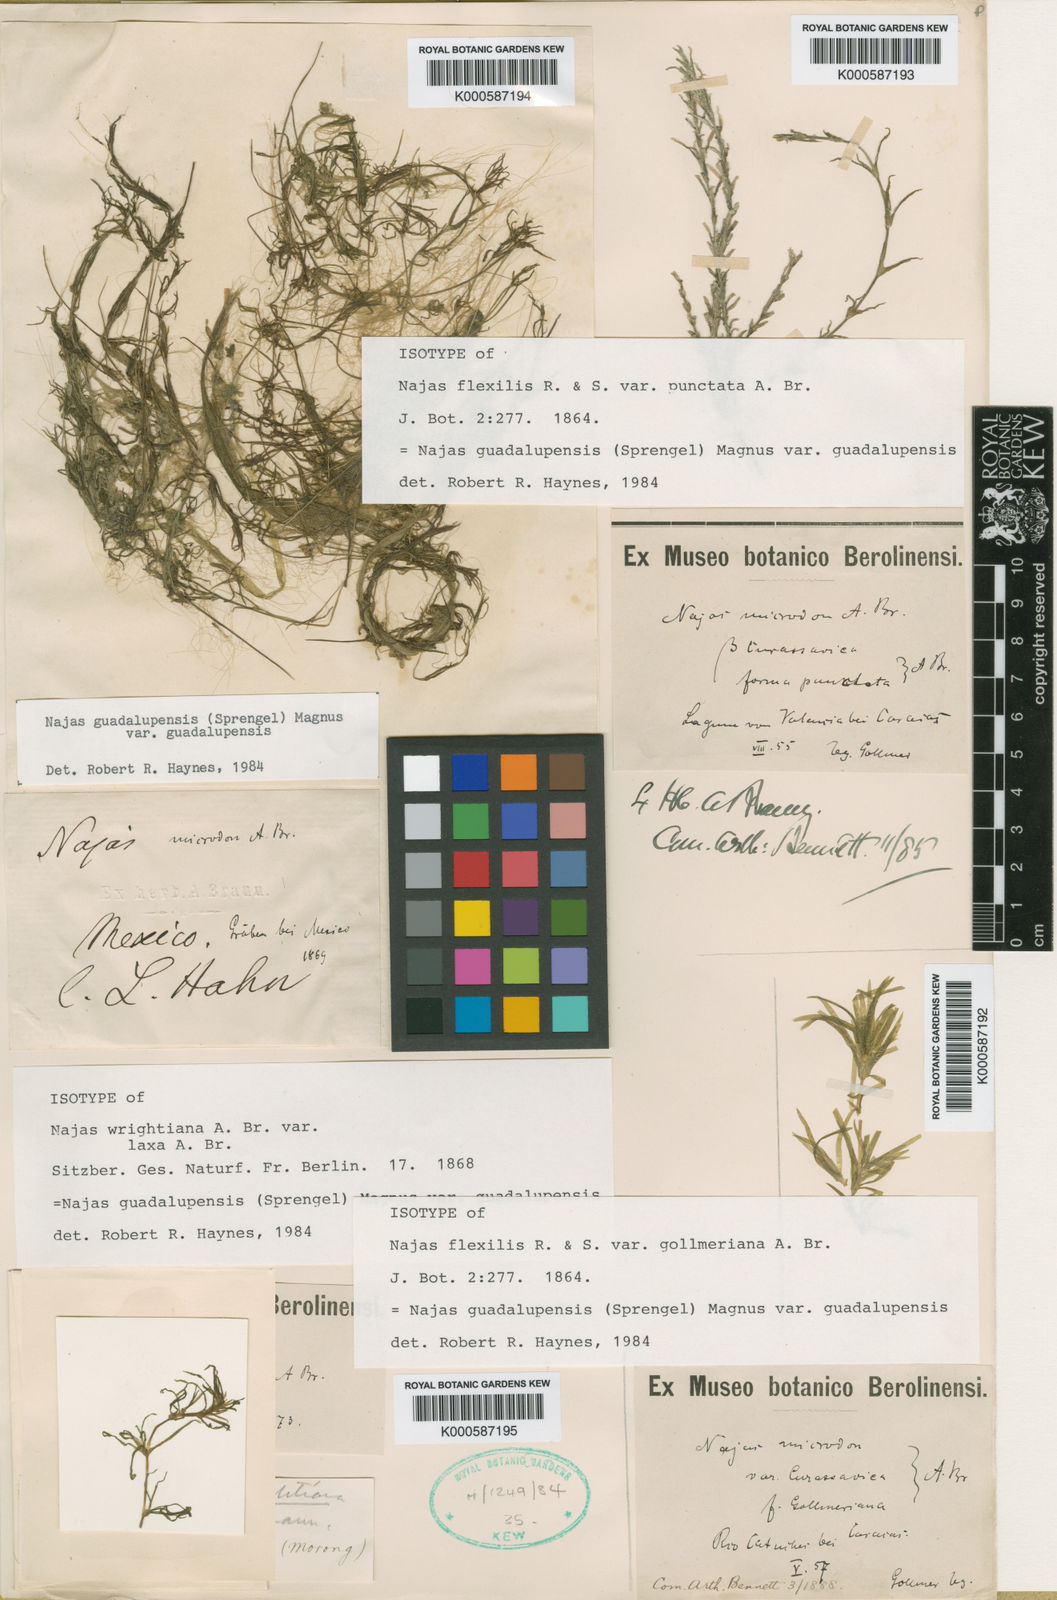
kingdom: Plantae
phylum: Tracheophyta
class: Liliopsida
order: Alismatales
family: Hydrocharitaceae
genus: Najas
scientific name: Najas guadalupensis
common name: Southern naiad
